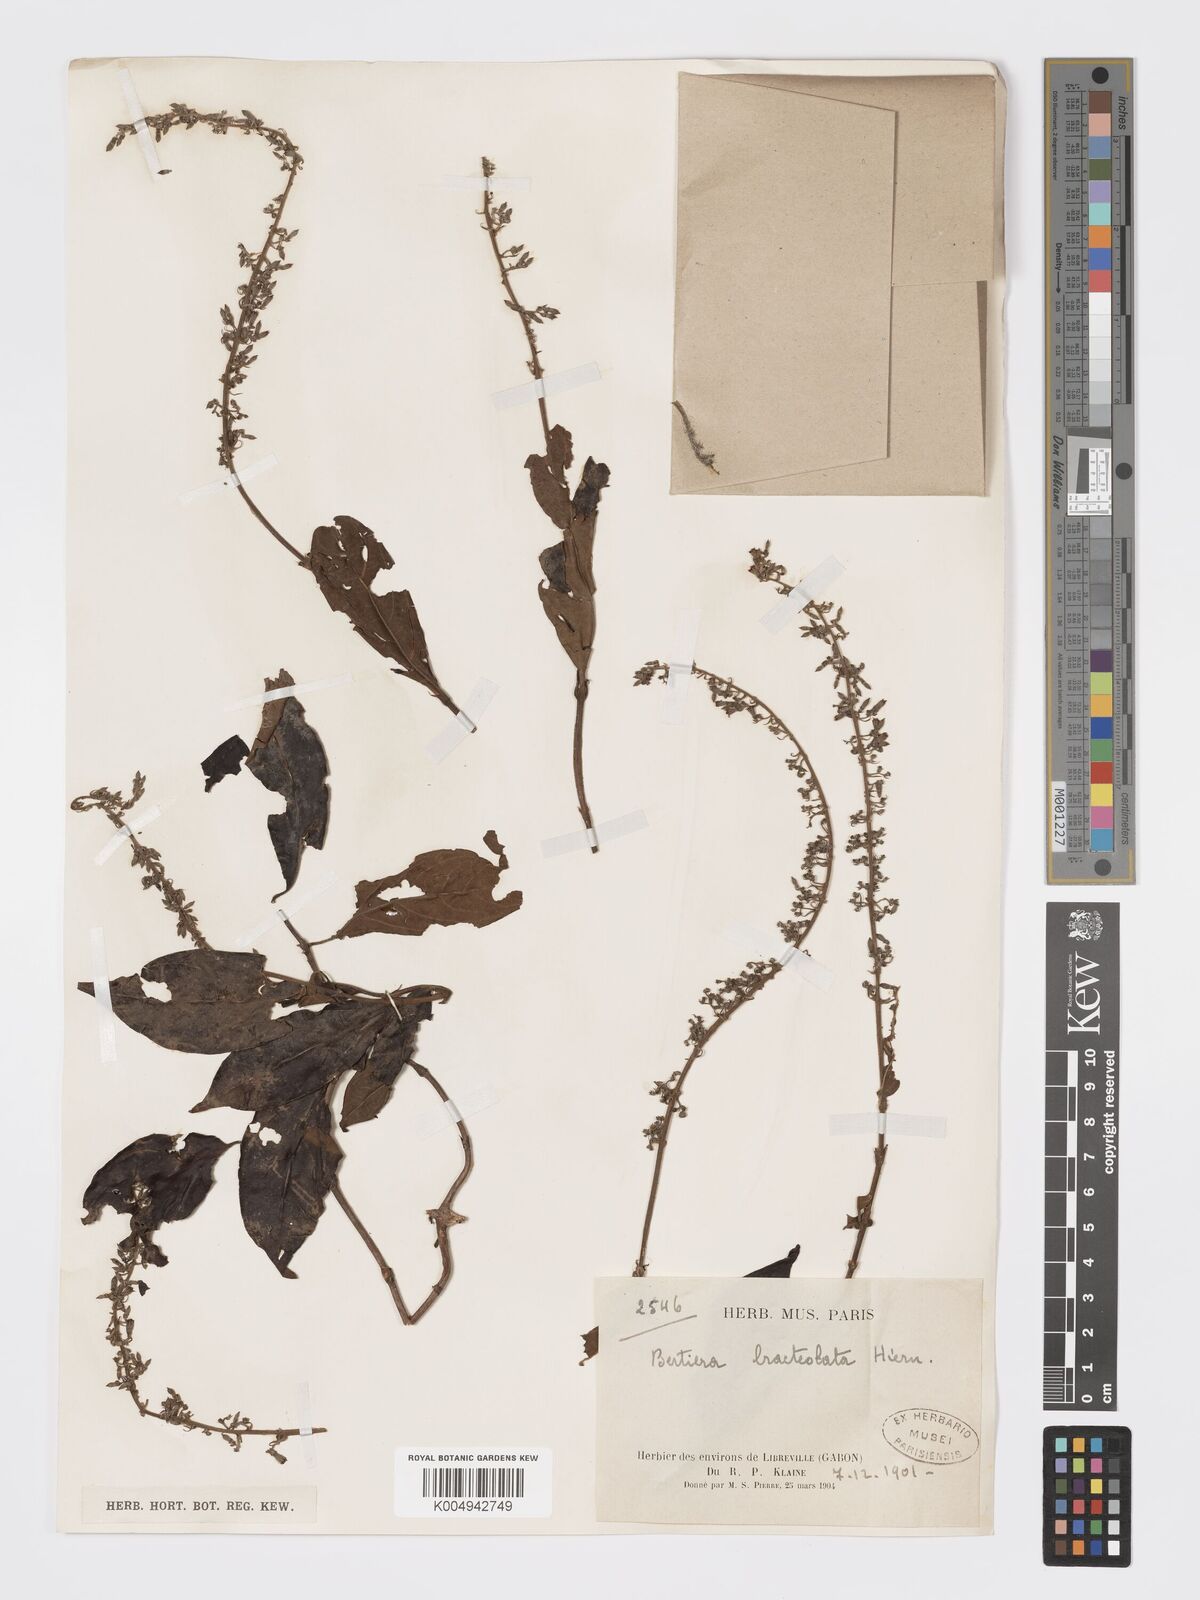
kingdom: Plantae
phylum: Tracheophyta
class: Magnoliopsida
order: Gentianales
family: Rubiaceae
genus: Bertiera
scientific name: Bertiera bracteolata
